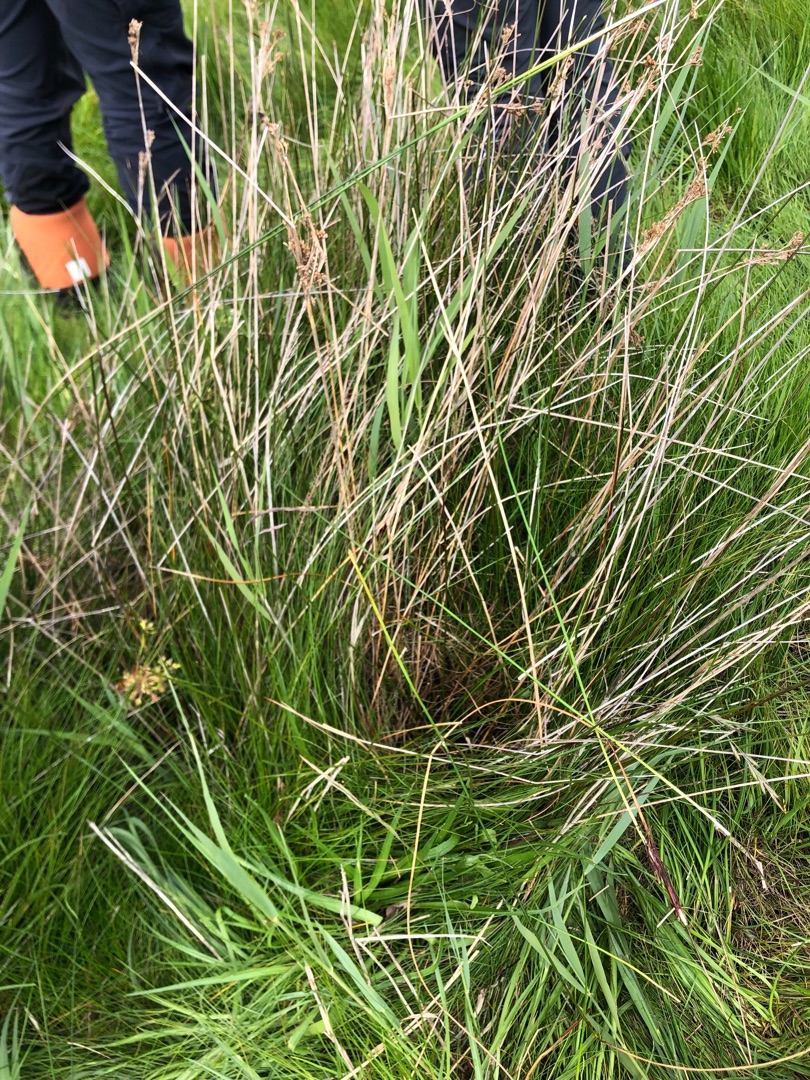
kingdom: Plantae
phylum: Tracheophyta
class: Liliopsida
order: Poales
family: Juncaceae
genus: Juncus
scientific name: Juncus maritimus
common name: Strand-siv
